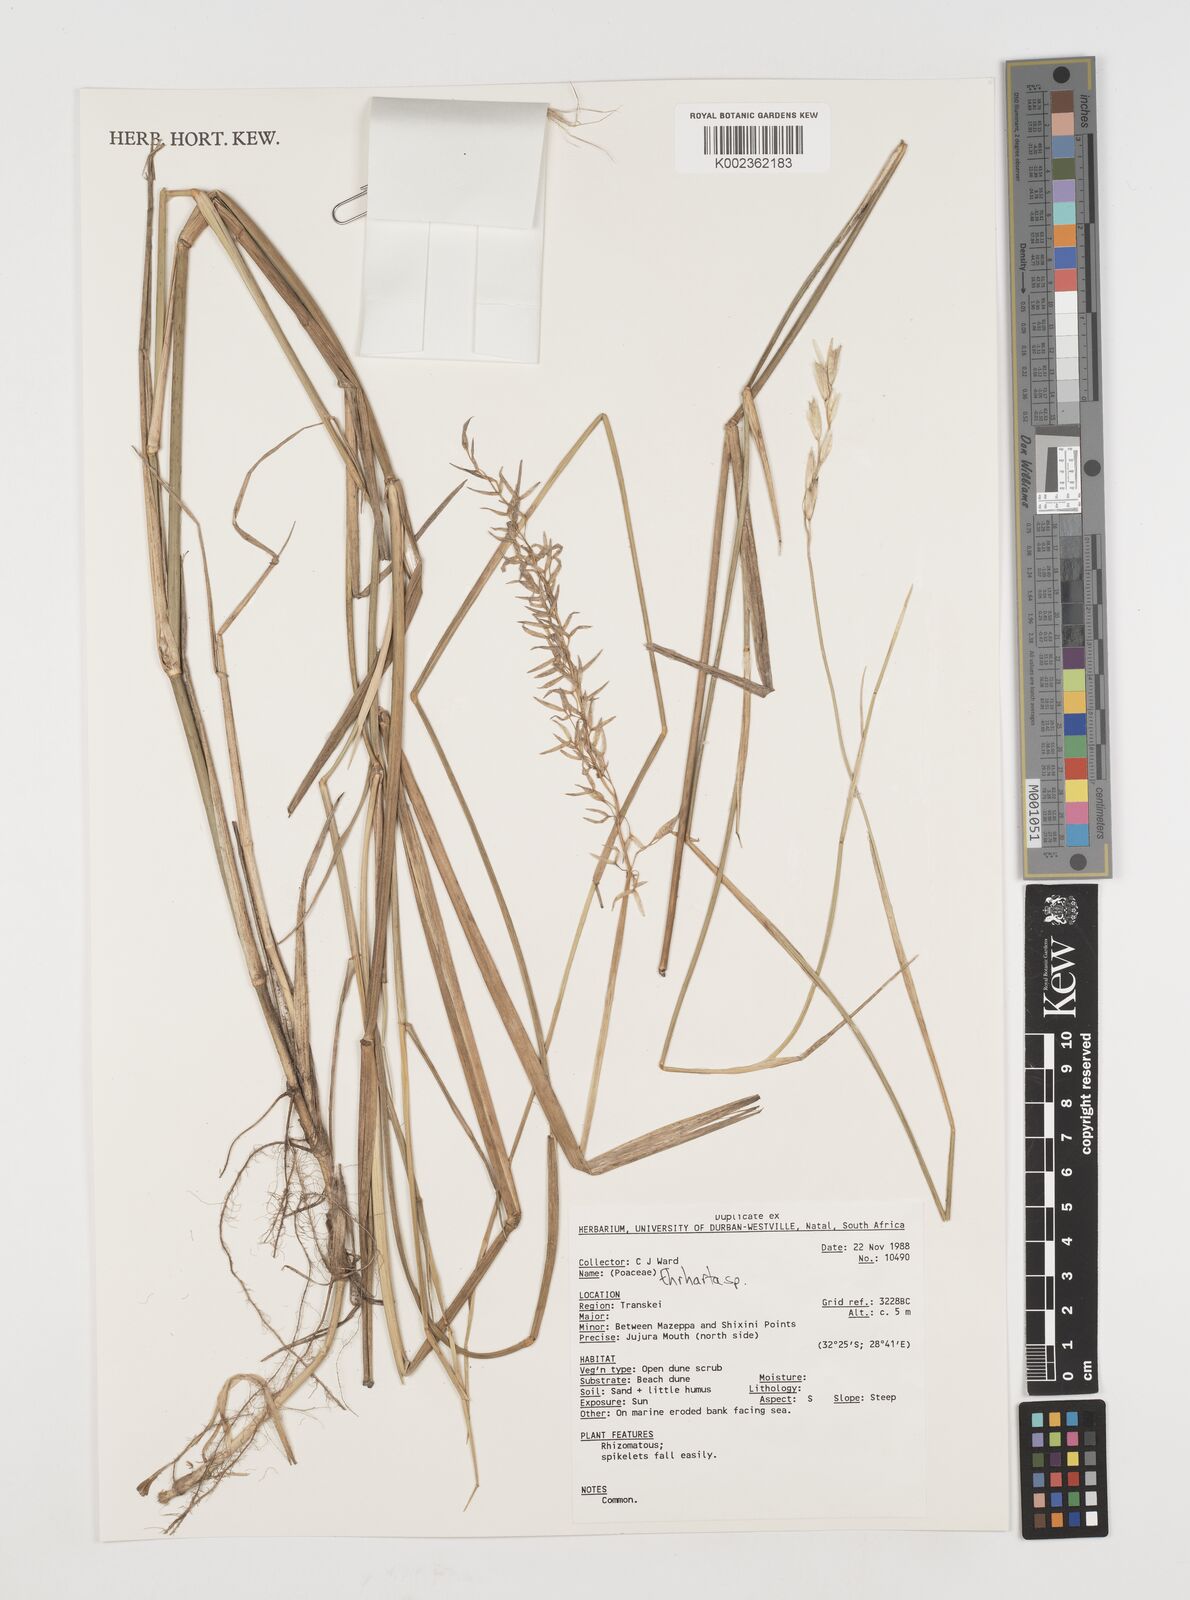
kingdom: Plantae
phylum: Tracheophyta
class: Liliopsida
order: Poales
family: Poaceae
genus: Ehrharta
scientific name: Ehrharta
